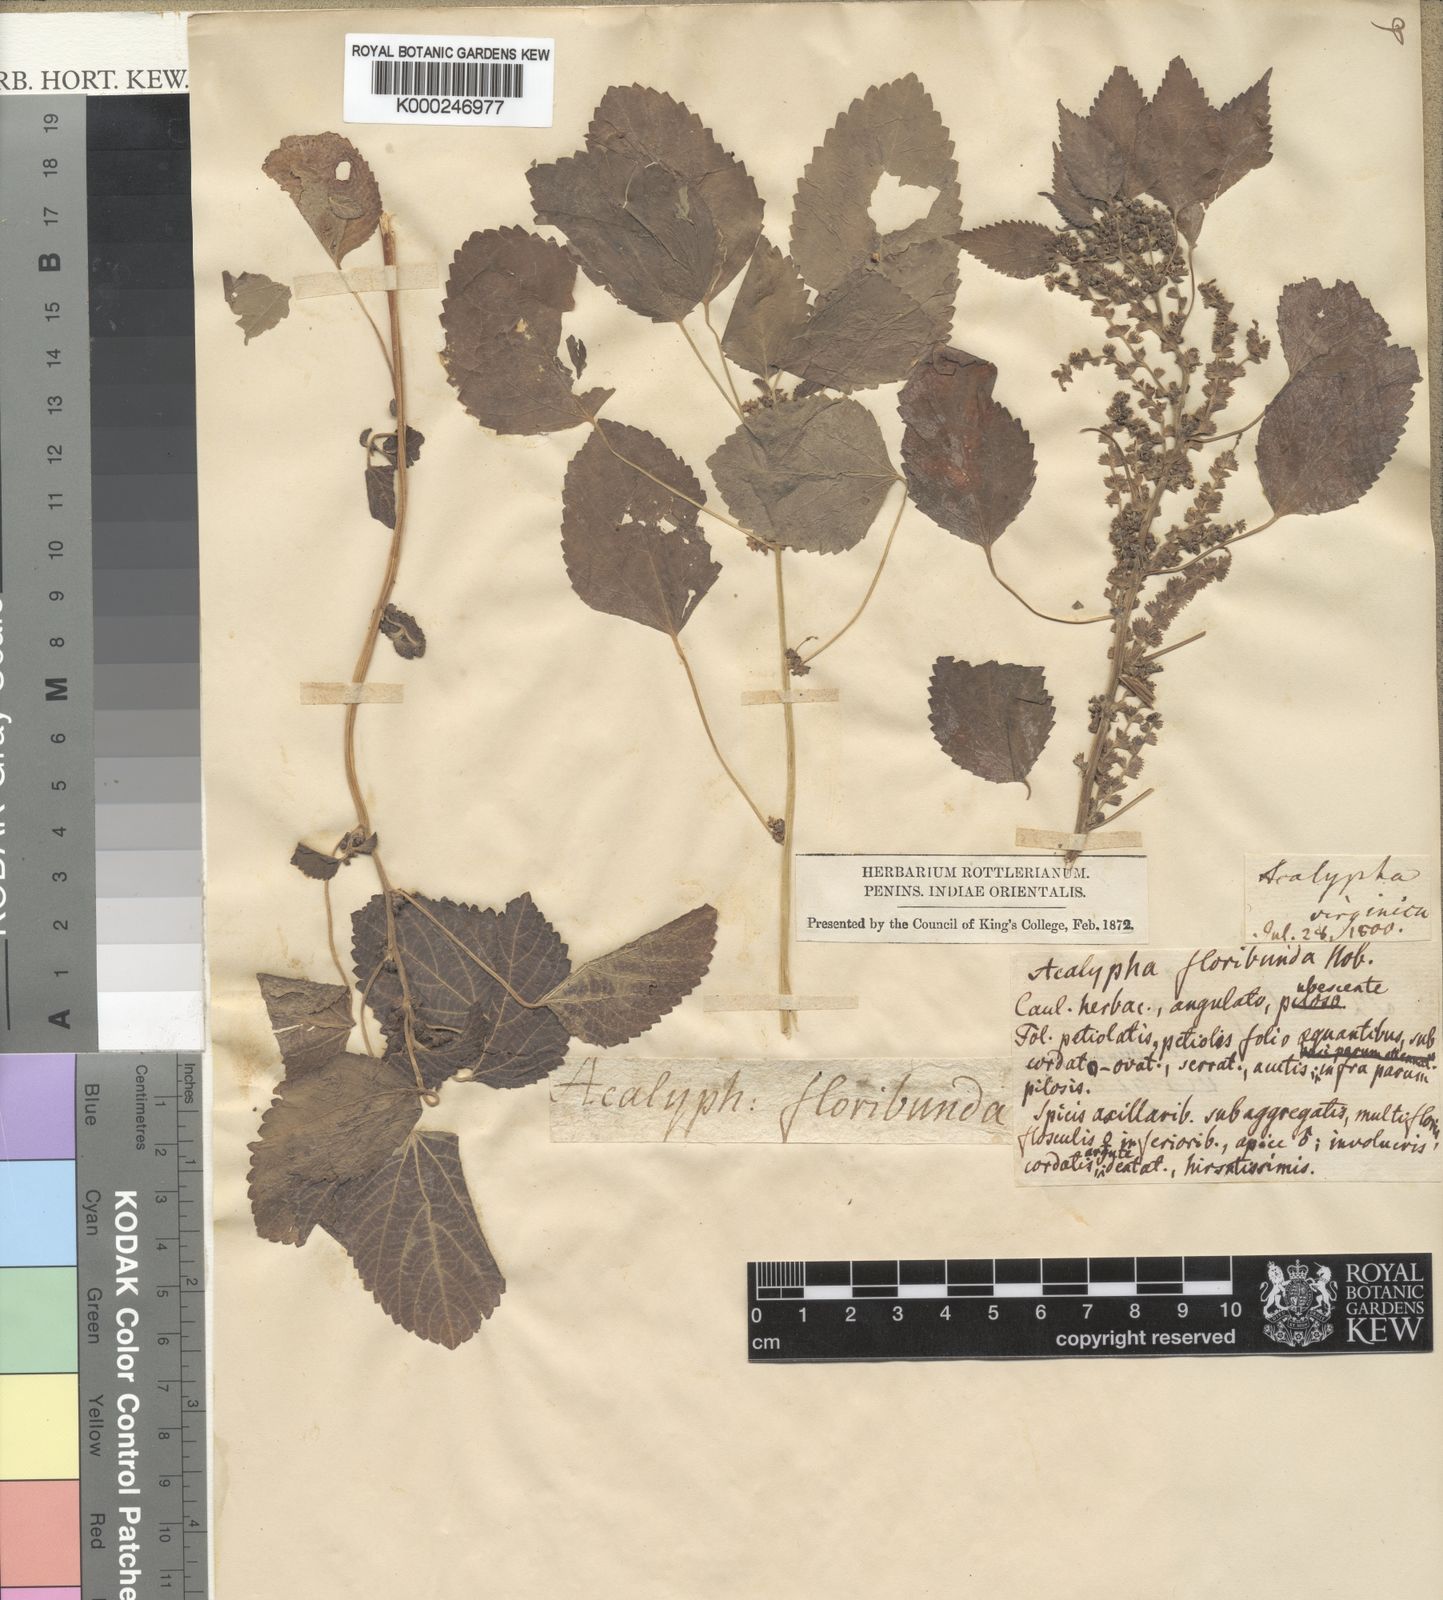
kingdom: Plantae
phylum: Tracheophyta
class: Magnoliopsida
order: Malpighiales
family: Euphorbiaceae
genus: Acalypha
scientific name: Acalypha lanceolata
